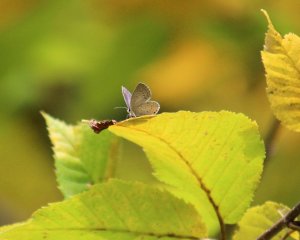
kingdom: Animalia
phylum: Arthropoda
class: Insecta
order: Lepidoptera
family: Lycaenidae
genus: Elkalyce
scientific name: Elkalyce comyntas
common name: Eastern Tailed-Blue
